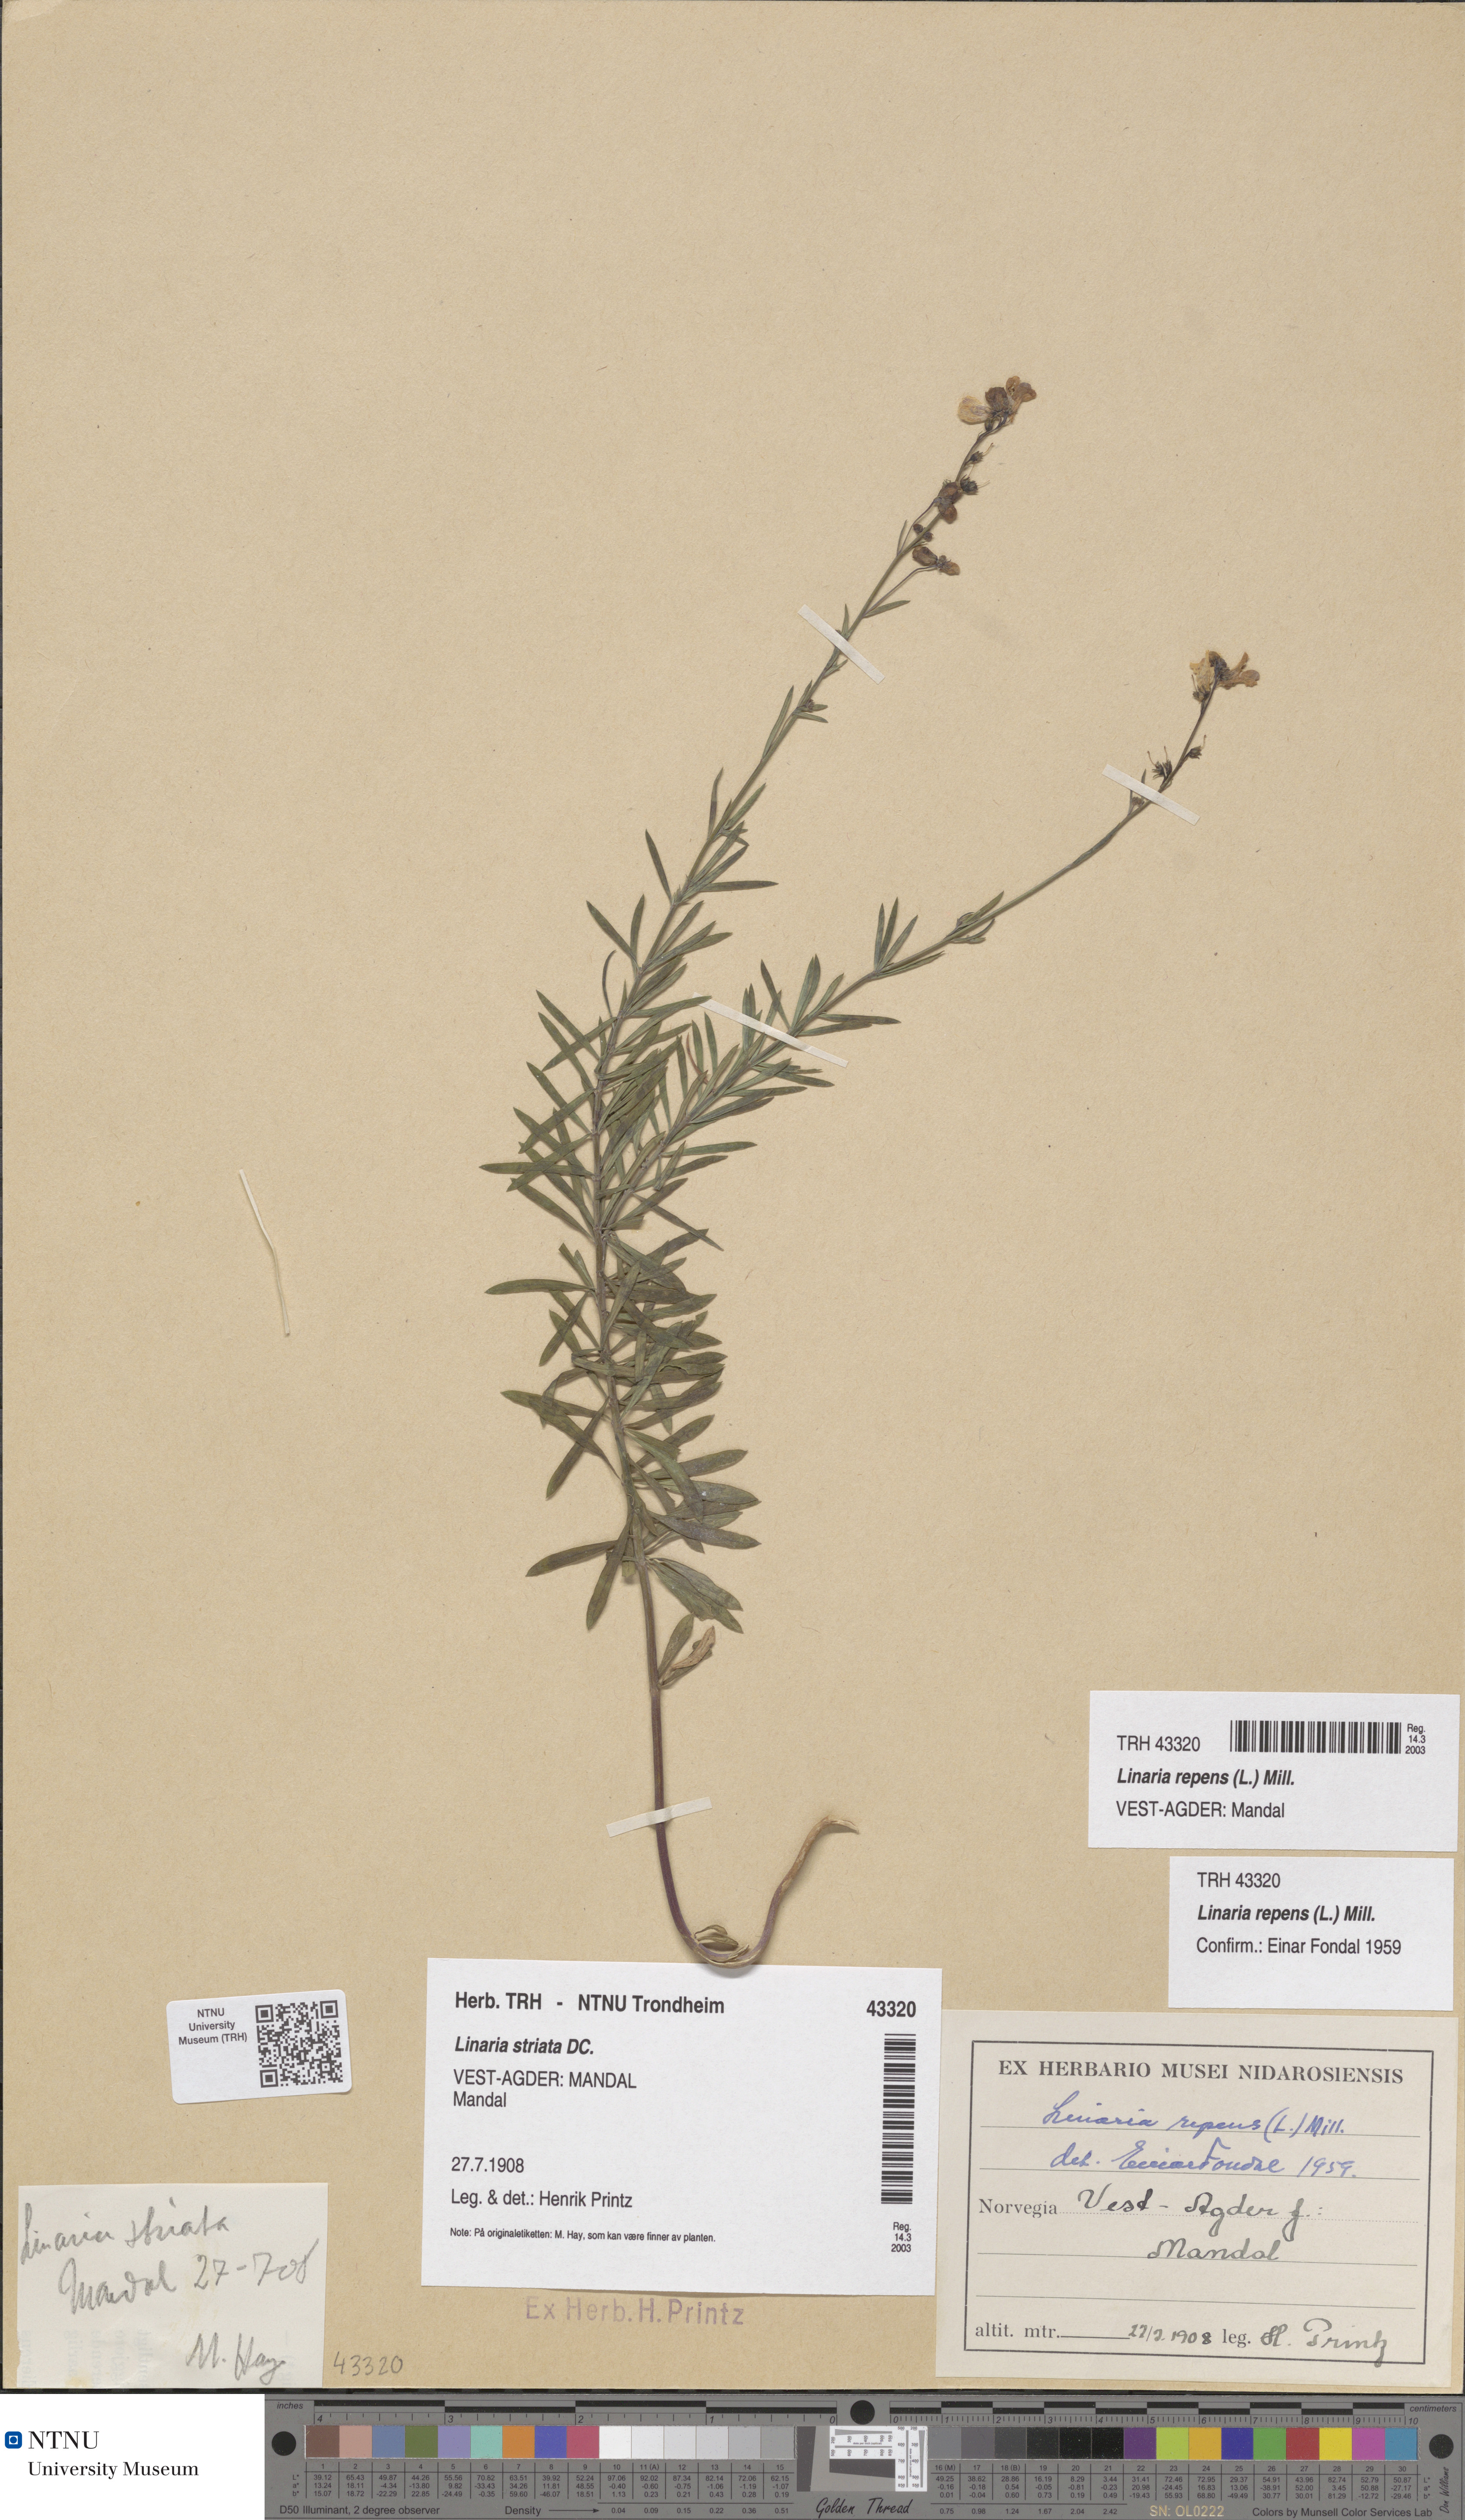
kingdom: Plantae
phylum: Tracheophyta
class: Magnoliopsida
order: Lamiales
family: Plantaginaceae
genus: Linaria
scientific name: Linaria repens
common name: Pale toadflax
